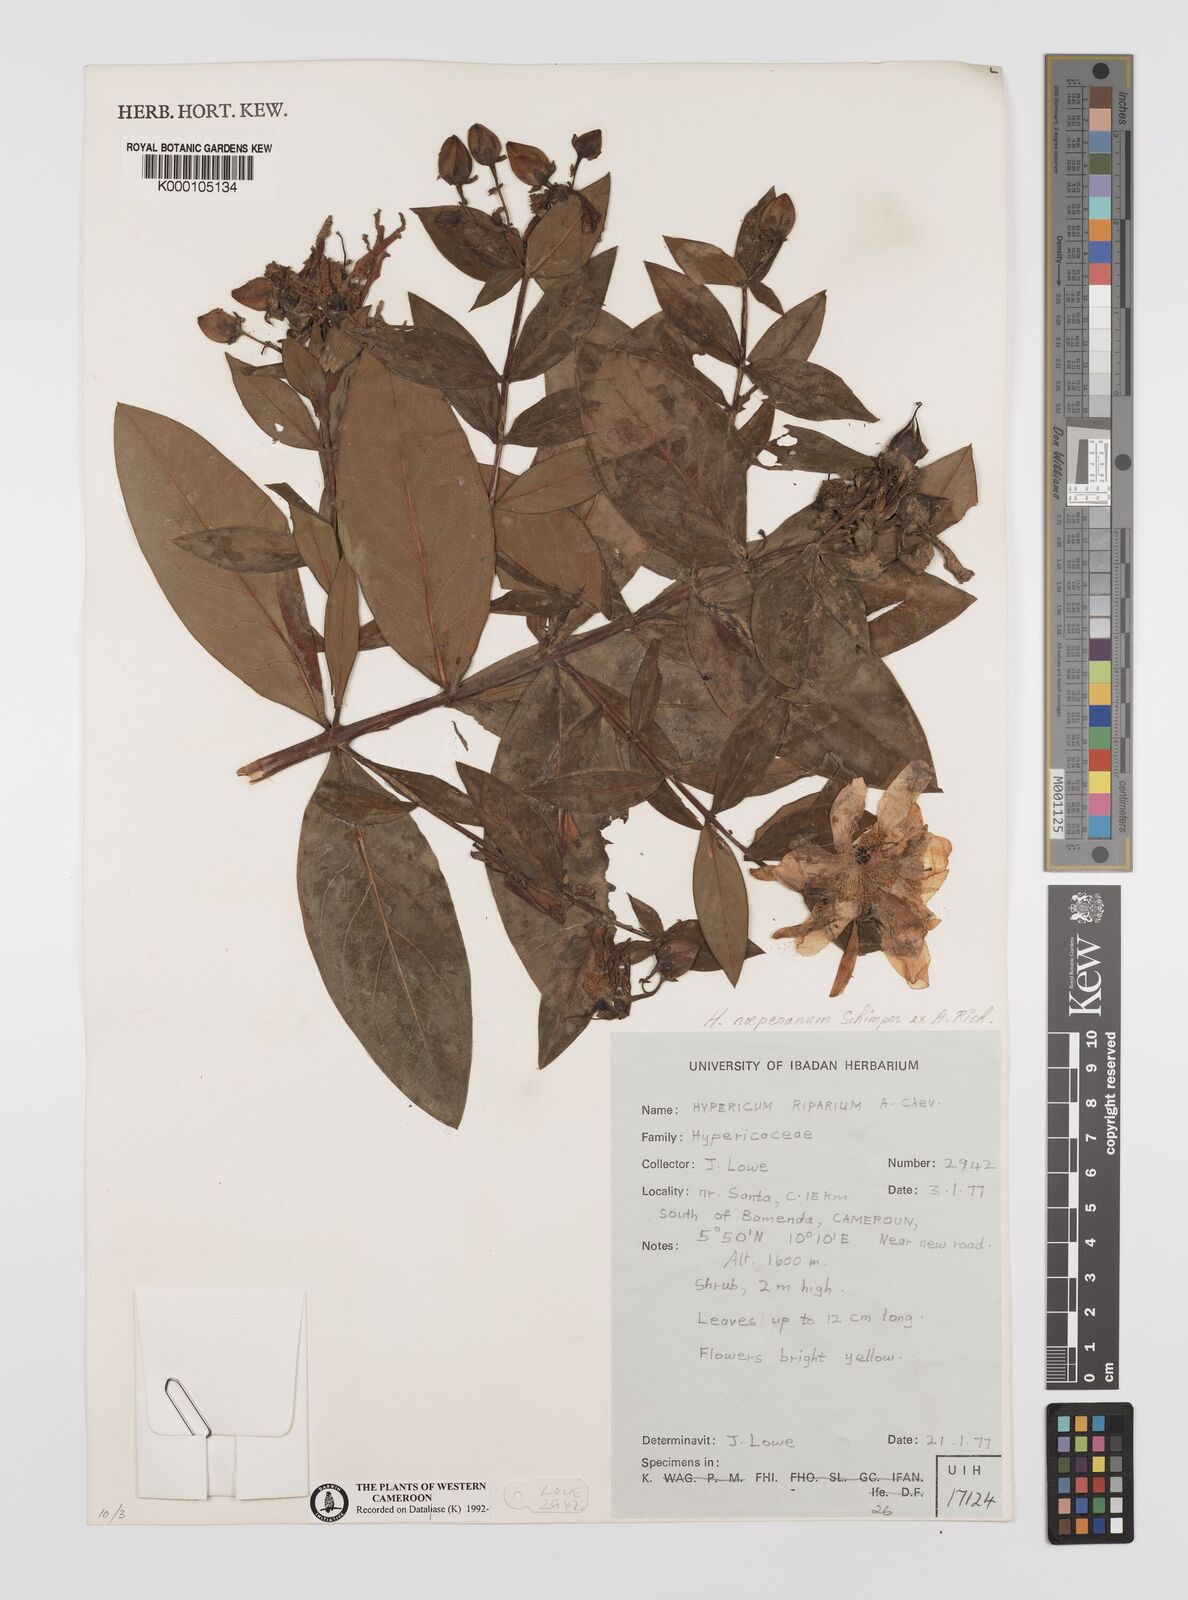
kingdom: Plantae
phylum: Tracheophyta
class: Magnoliopsida
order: Malpighiales
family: Hypericaceae
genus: Hypericum
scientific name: Hypericum
